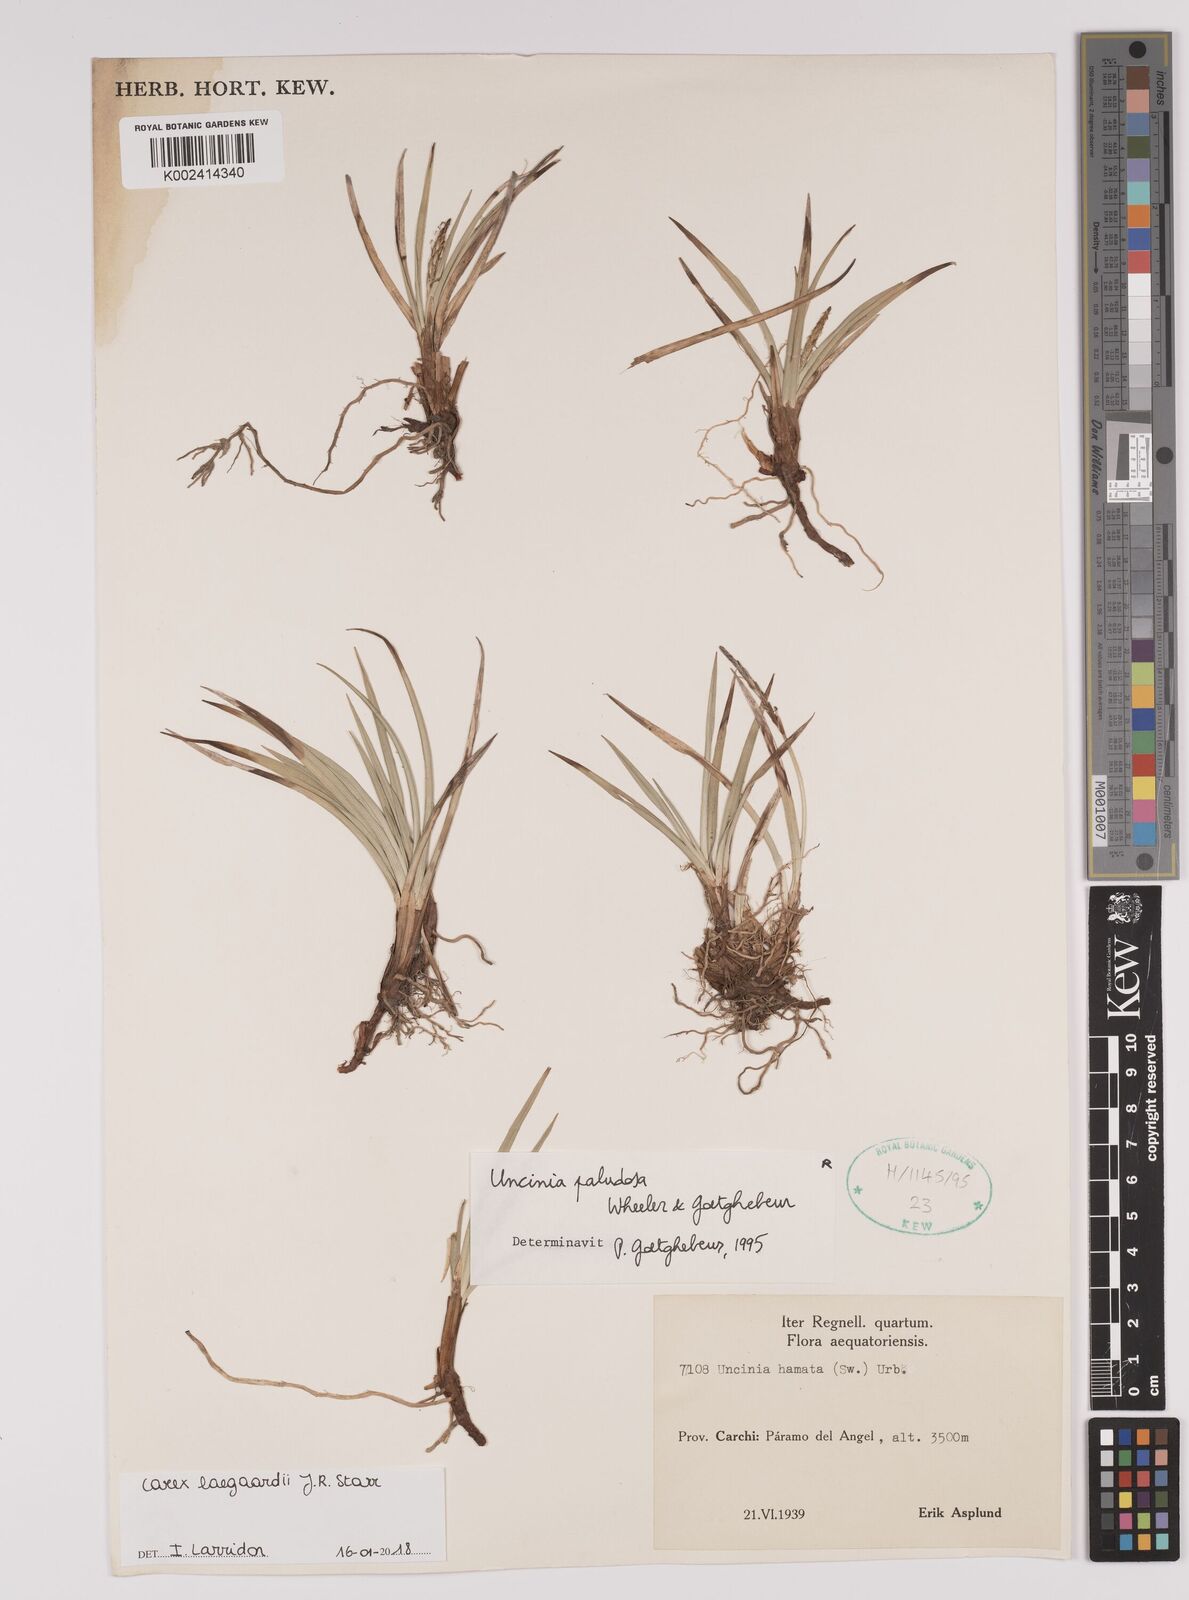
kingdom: Plantae
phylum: Tracheophyta
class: Liliopsida
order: Poales
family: Cyperaceae
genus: Carex
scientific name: Carex laegaardii
